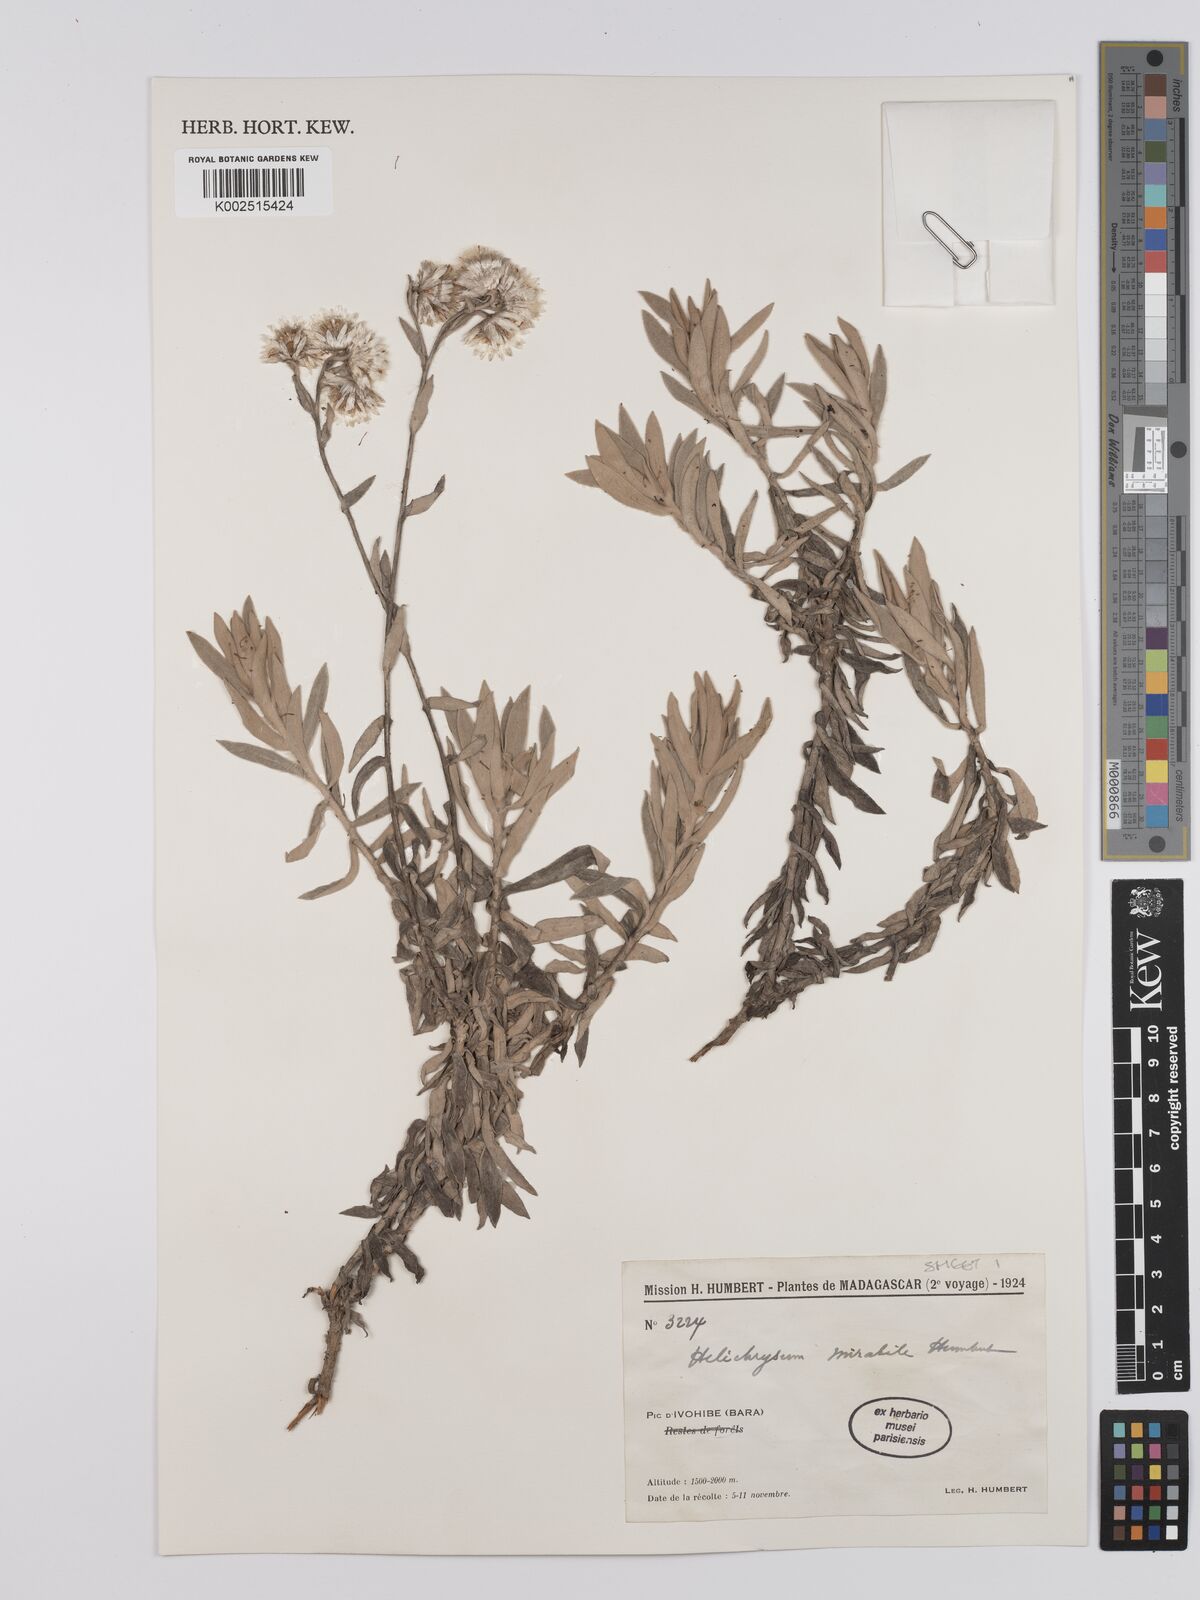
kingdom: Plantae
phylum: Tracheophyta
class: Magnoliopsida
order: Asterales
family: Asteraceae
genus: Helichrysum
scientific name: Helichrysum mirabile
